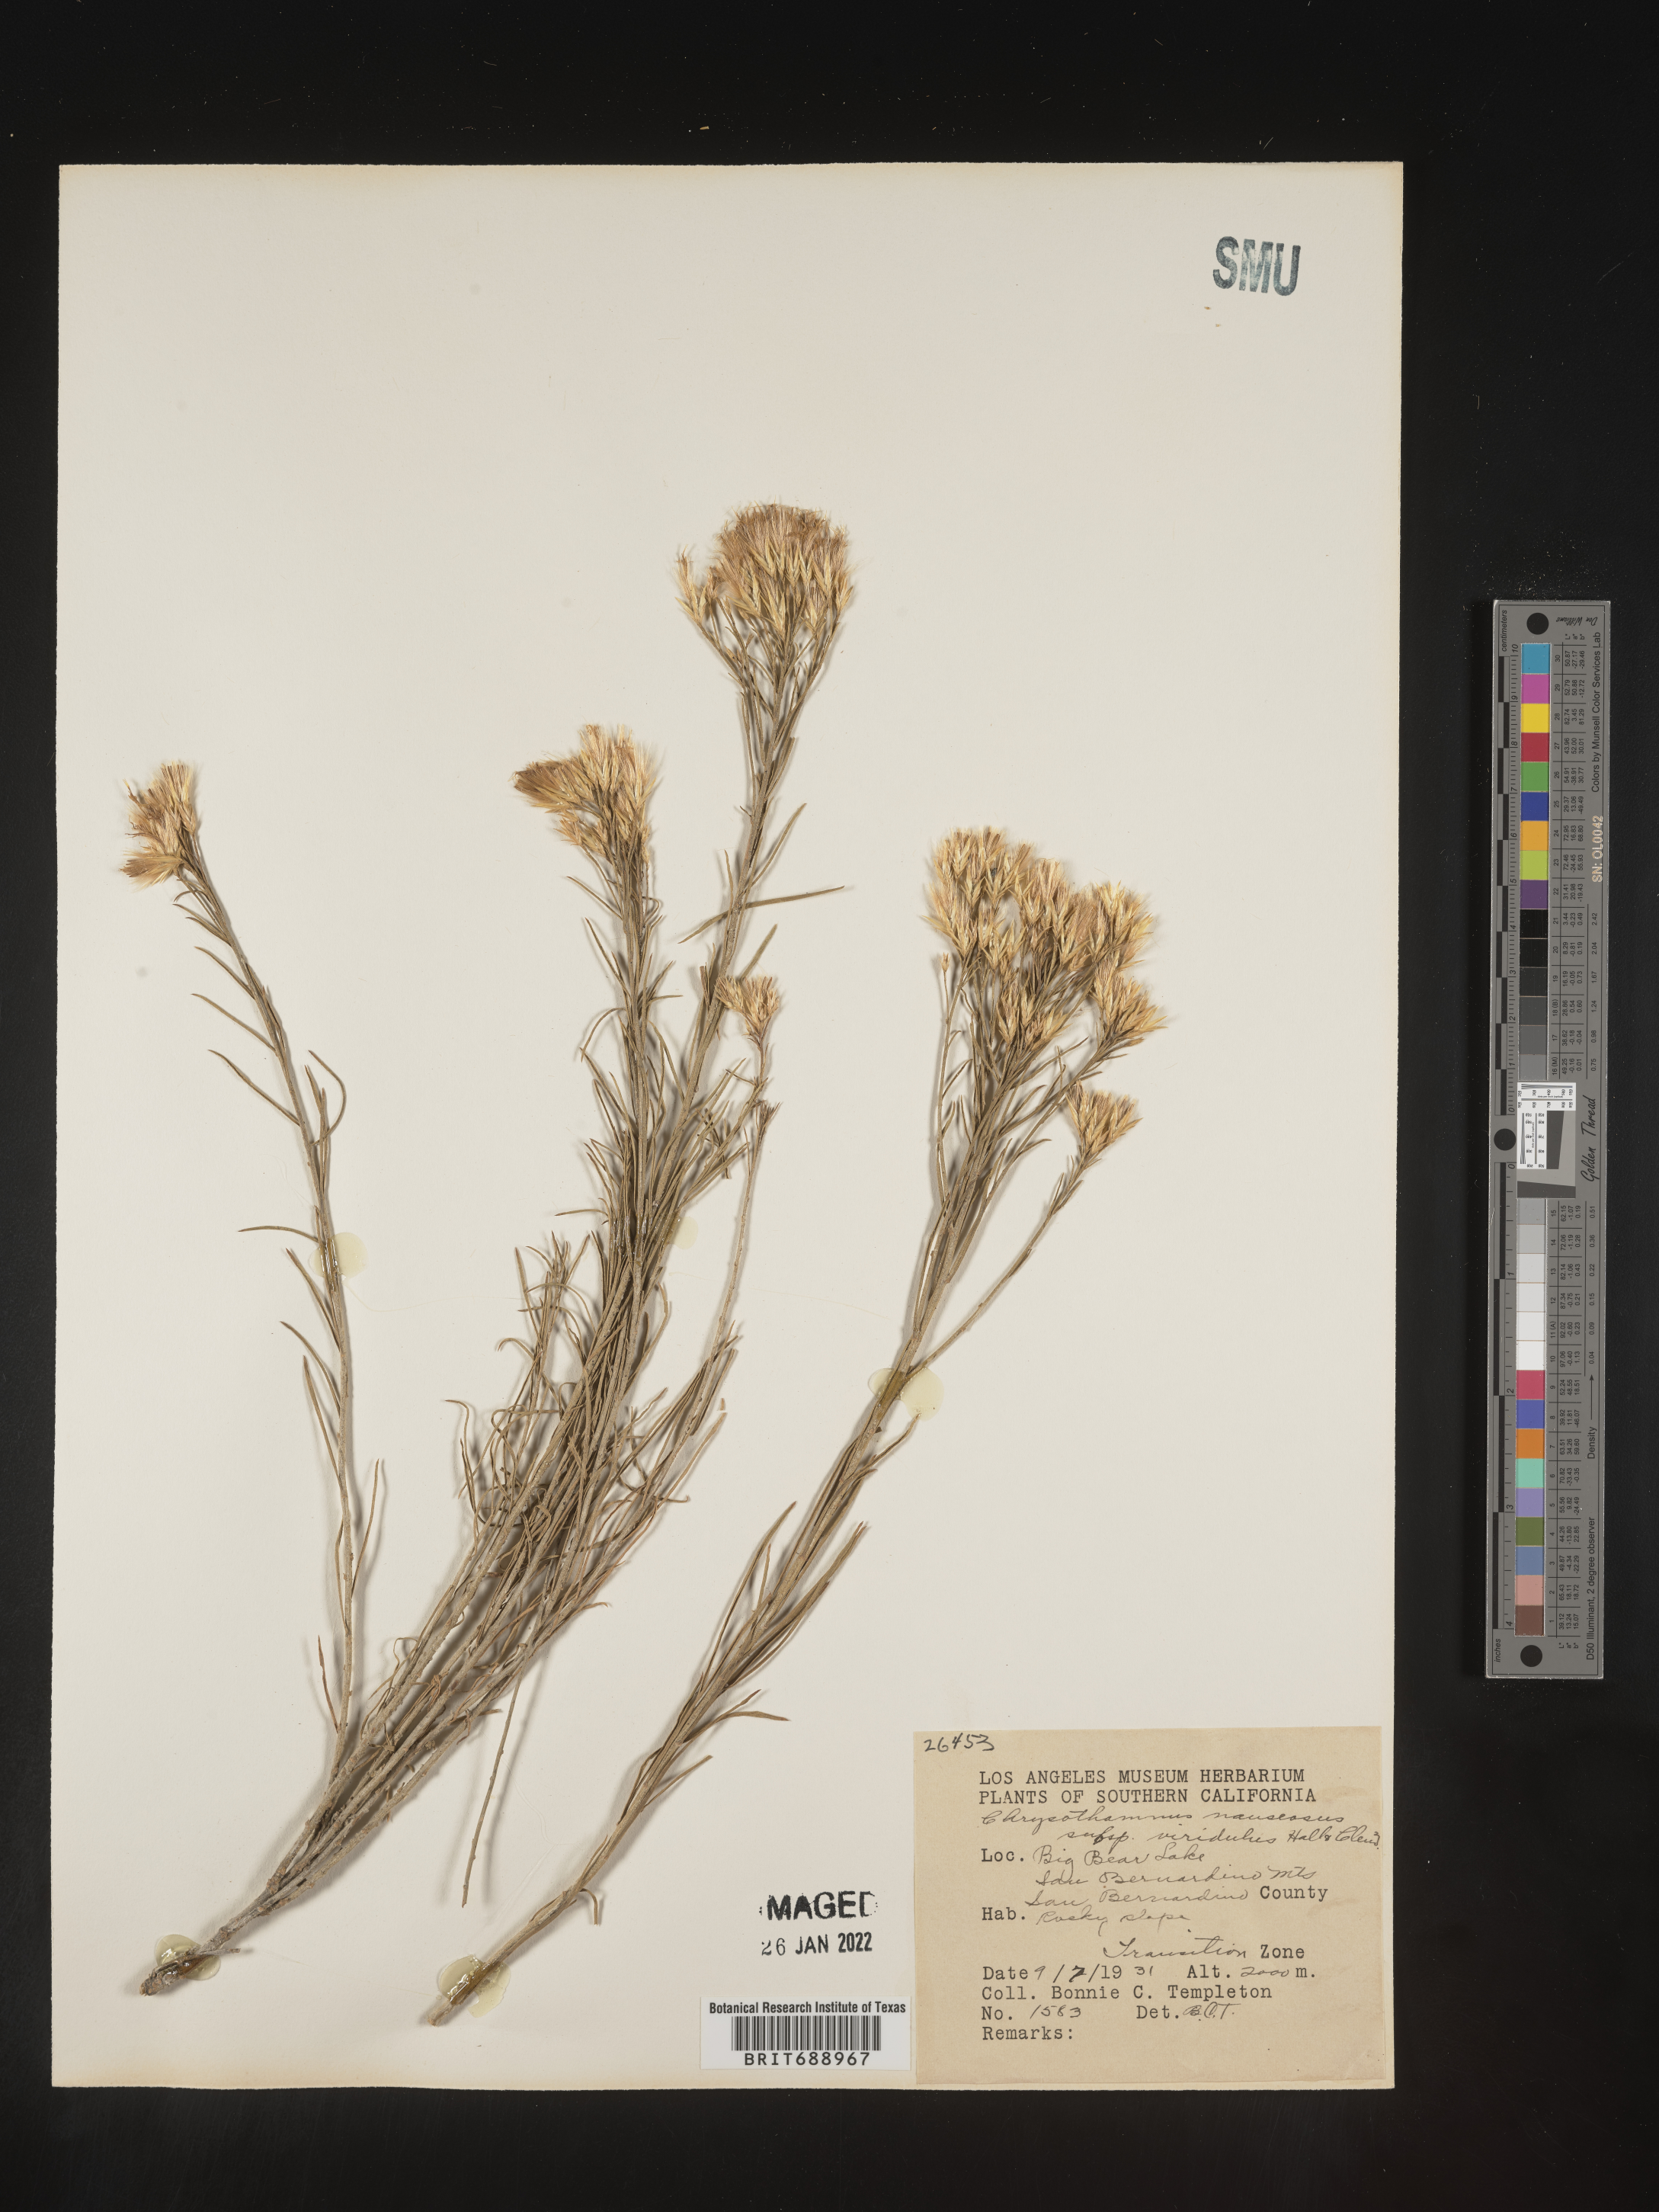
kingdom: Plantae
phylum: Tracheophyta
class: Magnoliopsida
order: Asterales
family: Asteraceae
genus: Ericameria
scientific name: Ericameria nauseosa
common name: Rubber rabbitbrush
